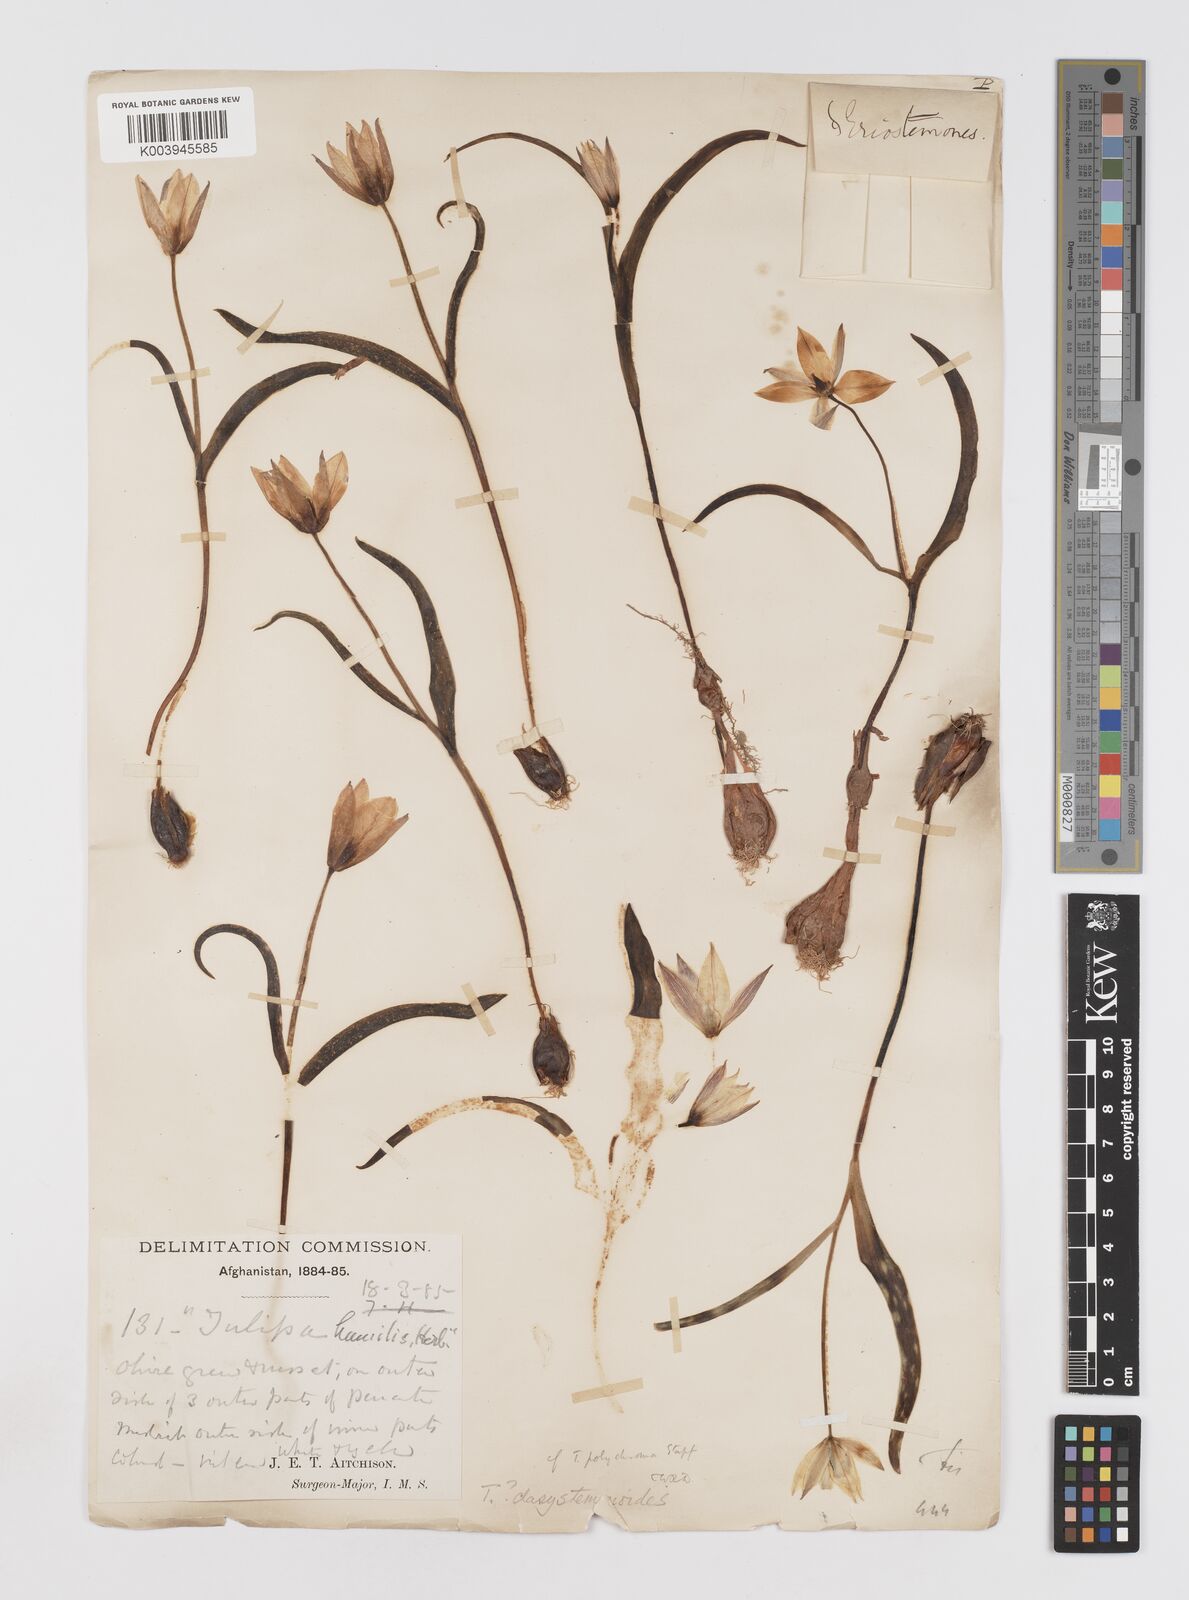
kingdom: Plantae
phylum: Tracheophyta
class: Liliopsida
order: Liliales
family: Liliaceae
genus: Tulipa
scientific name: Tulipa dasystemon
